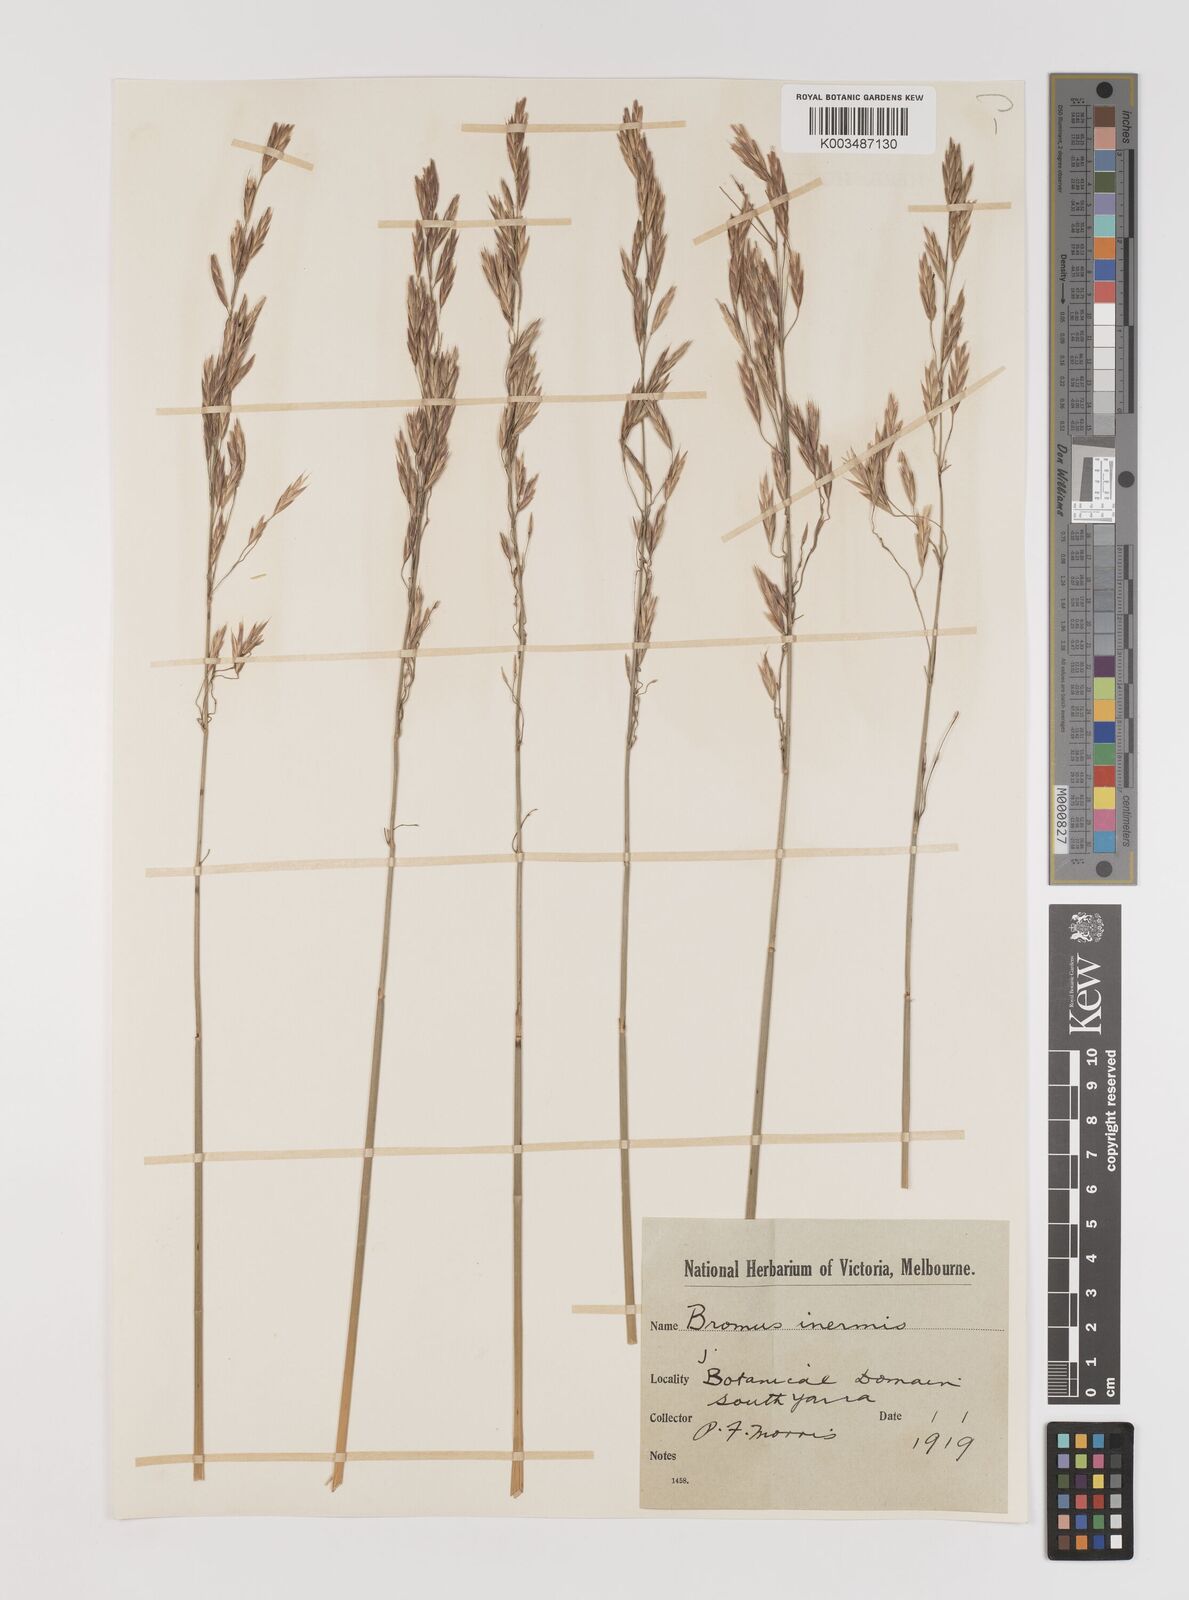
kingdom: Plantae
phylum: Tracheophyta
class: Liliopsida
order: Poales
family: Poaceae
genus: Bromus
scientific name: Bromus
